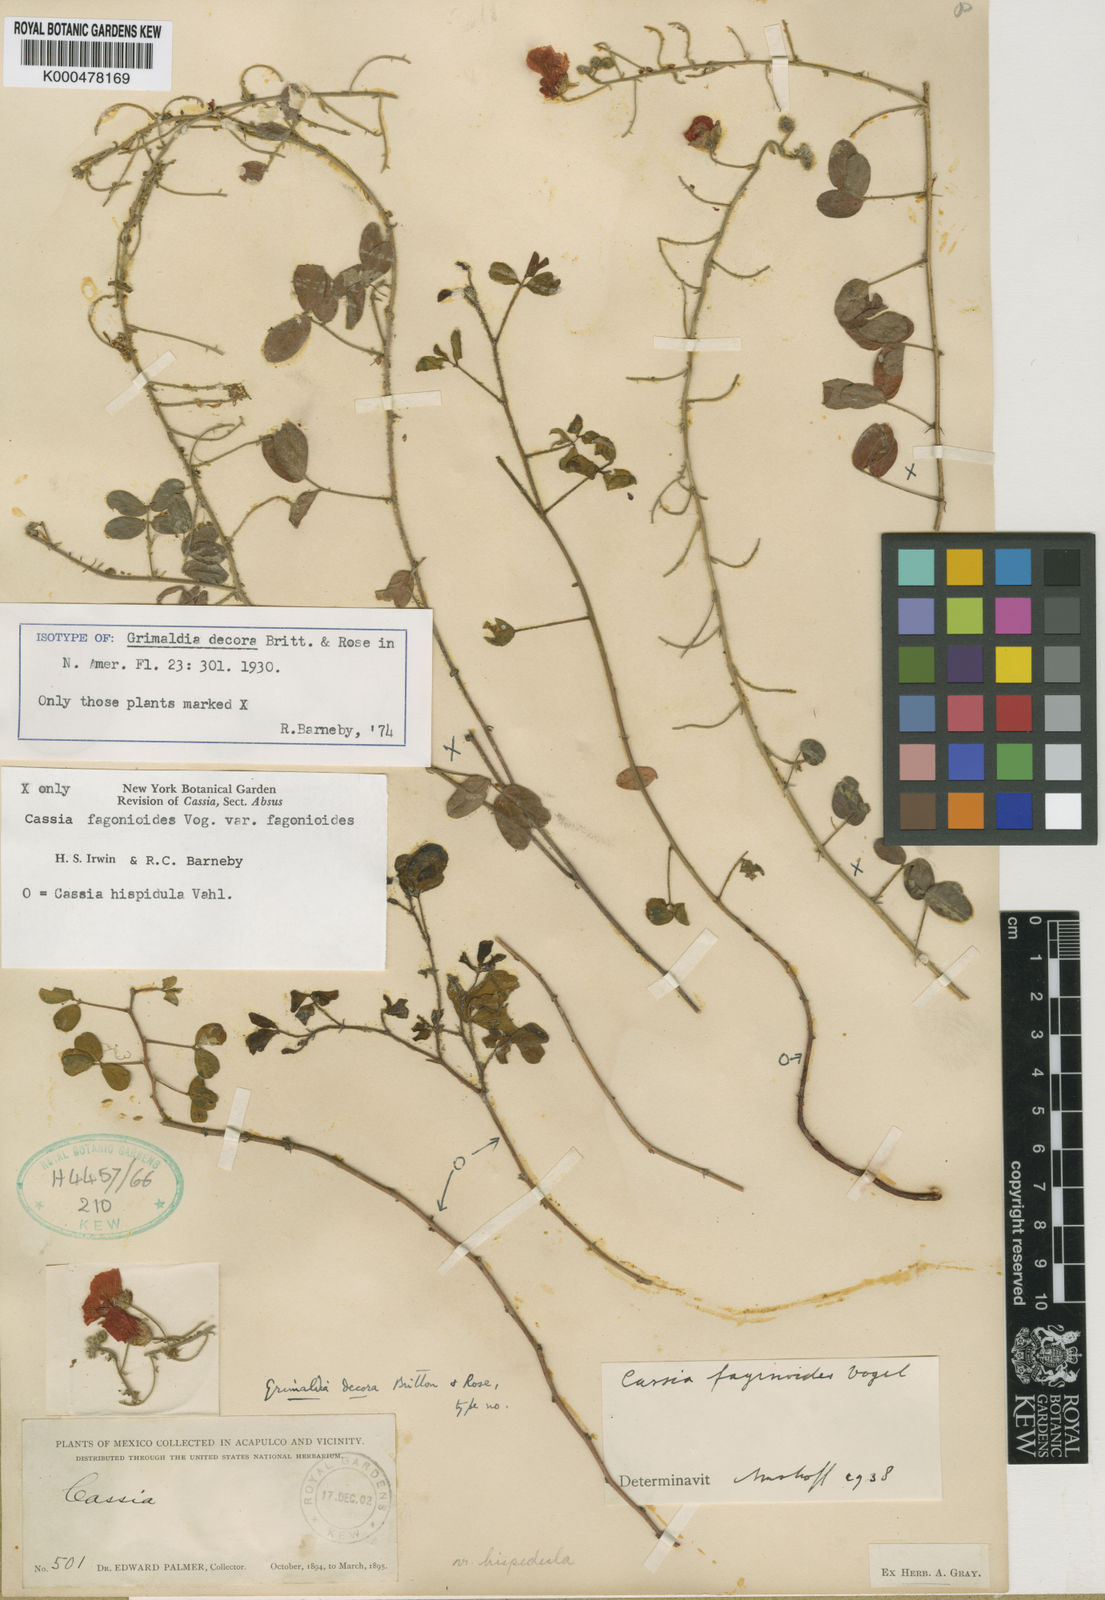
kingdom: Plantae
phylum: Tracheophyta
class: Magnoliopsida
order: Fabales
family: Fabaceae
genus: Chamaecrista
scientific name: Chamaecrista fagonioides
